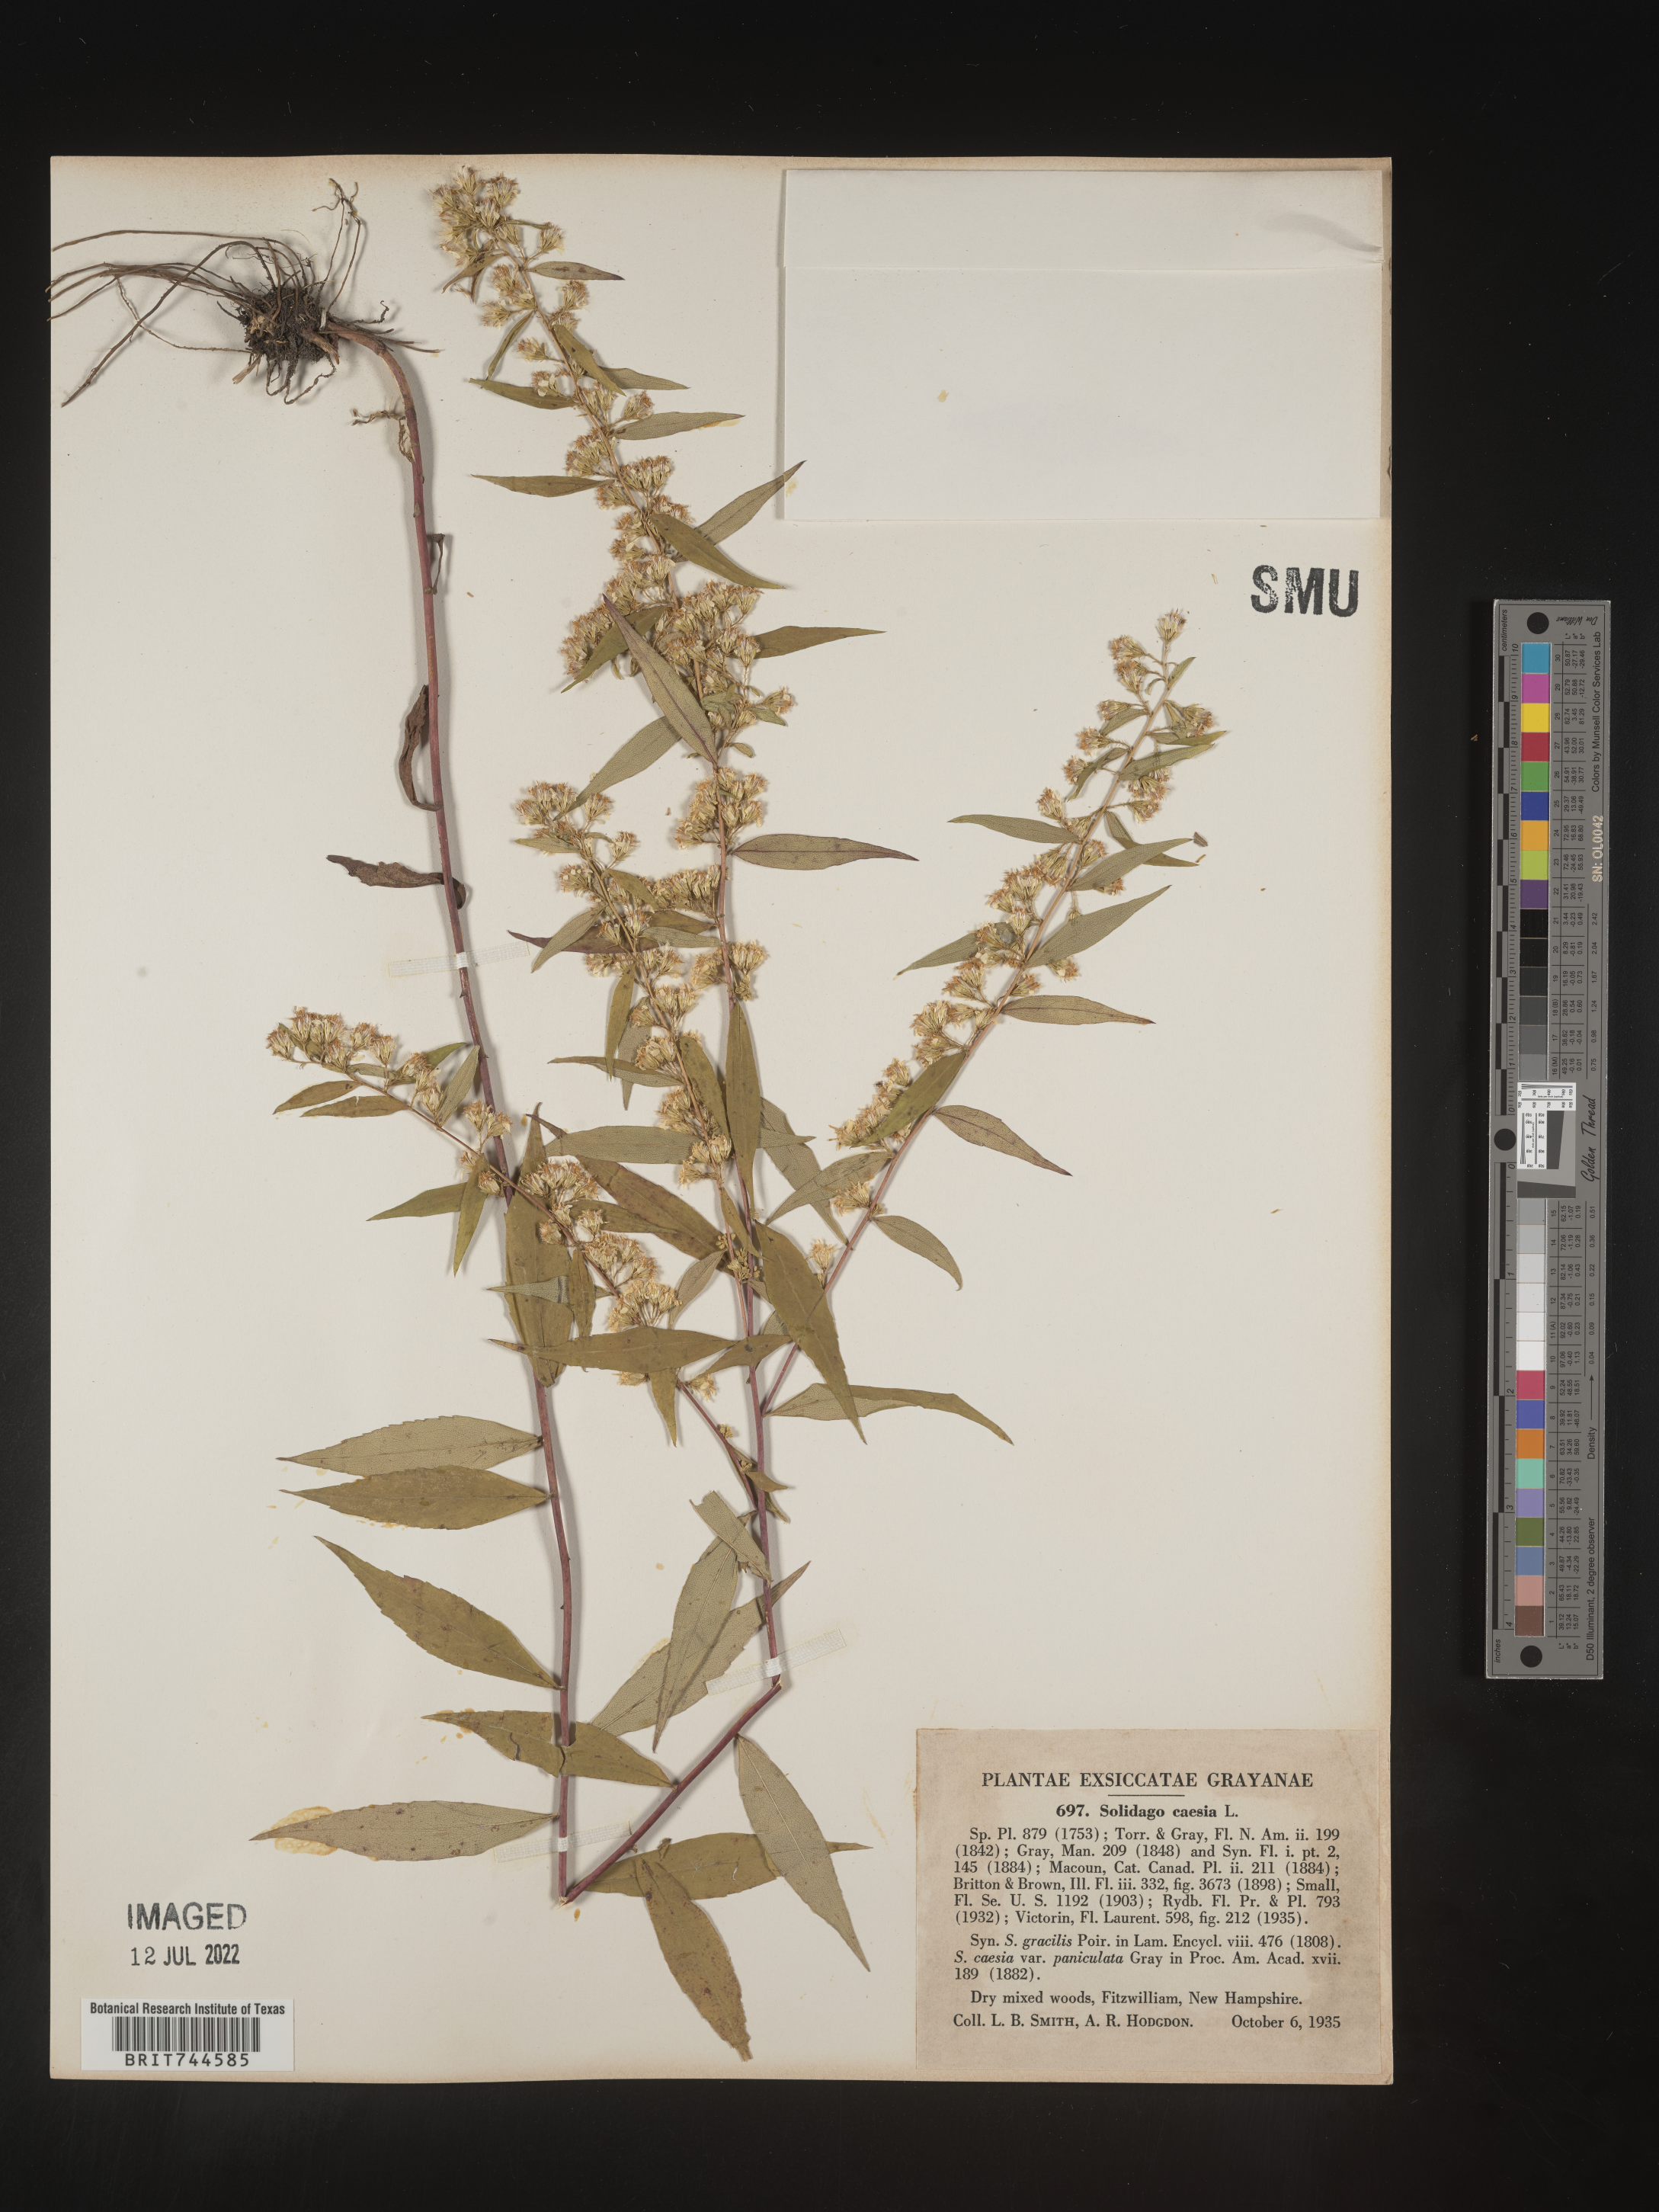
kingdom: Plantae
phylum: Tracheophyta
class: Magnoliopsida
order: Asterales
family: Asteraceae
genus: Solidago
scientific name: Solidago caesia
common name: Woodland goldenrod
